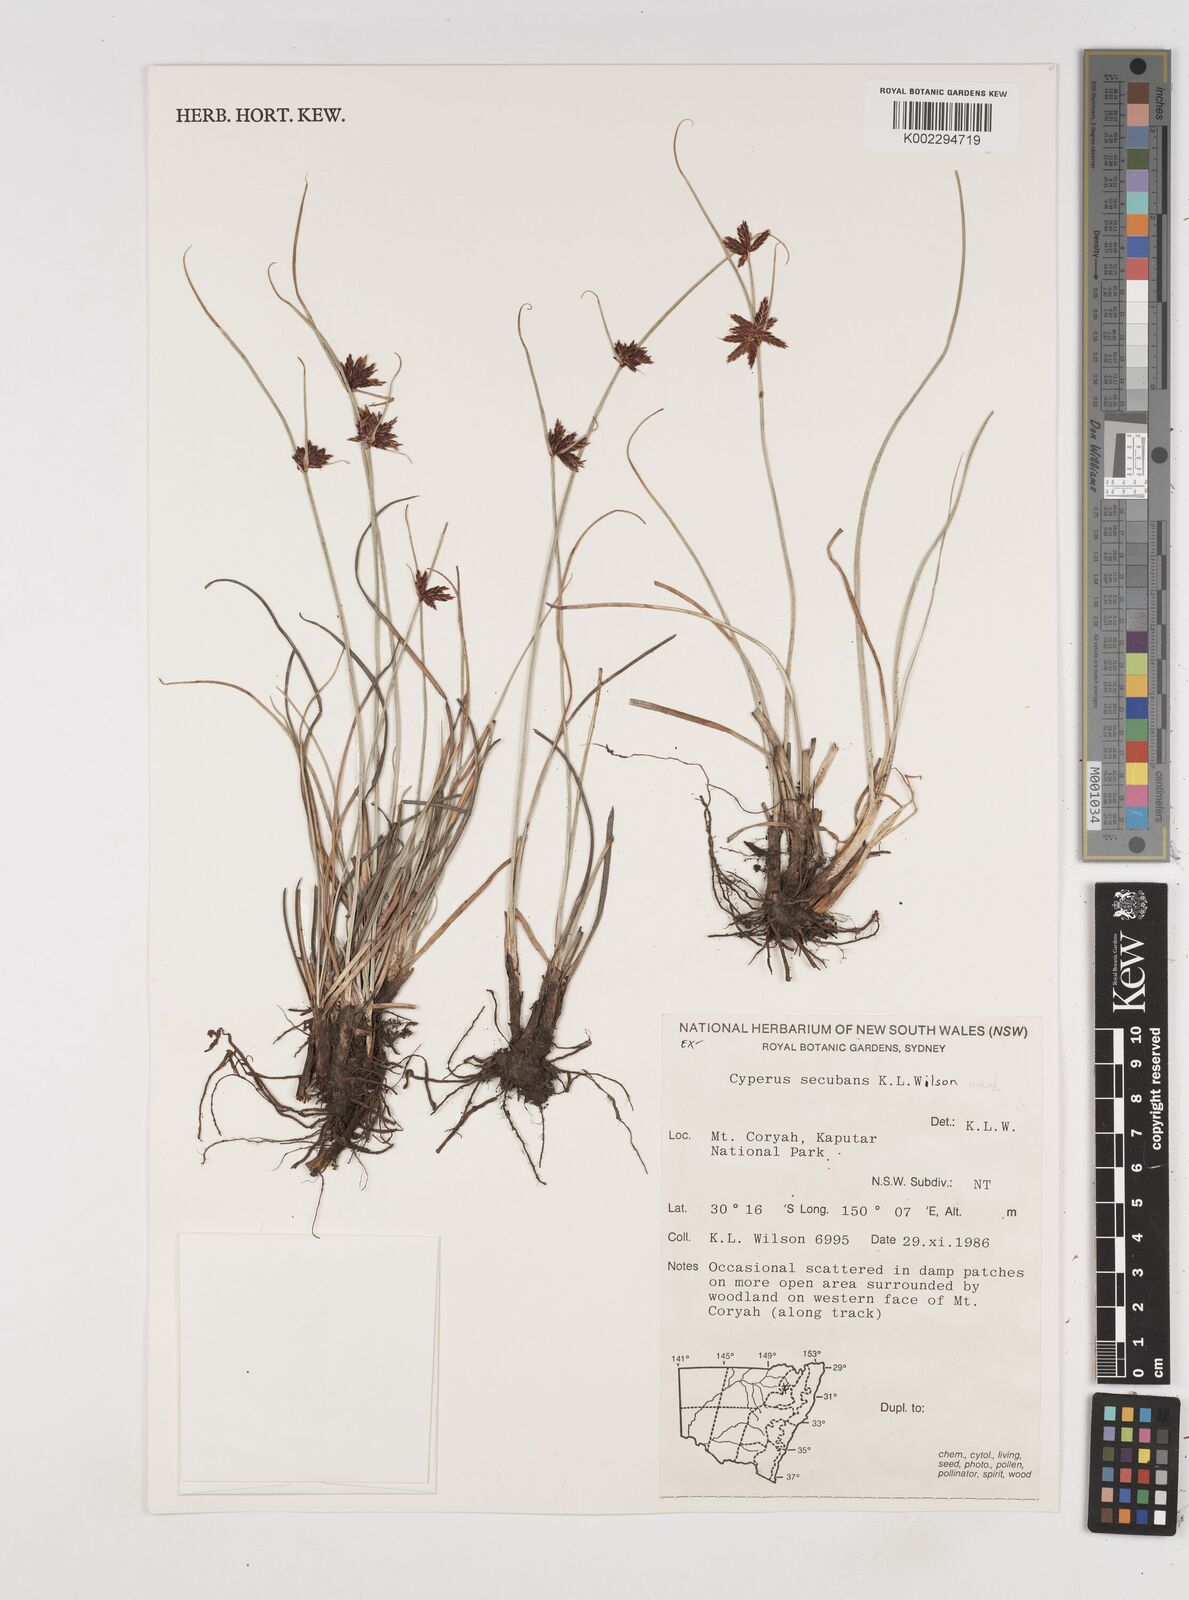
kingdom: Plantae
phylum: Tracheophyta
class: Liliopsida
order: Poales
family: Cyperaceae
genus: Cyperus
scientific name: Cyperus secubans
